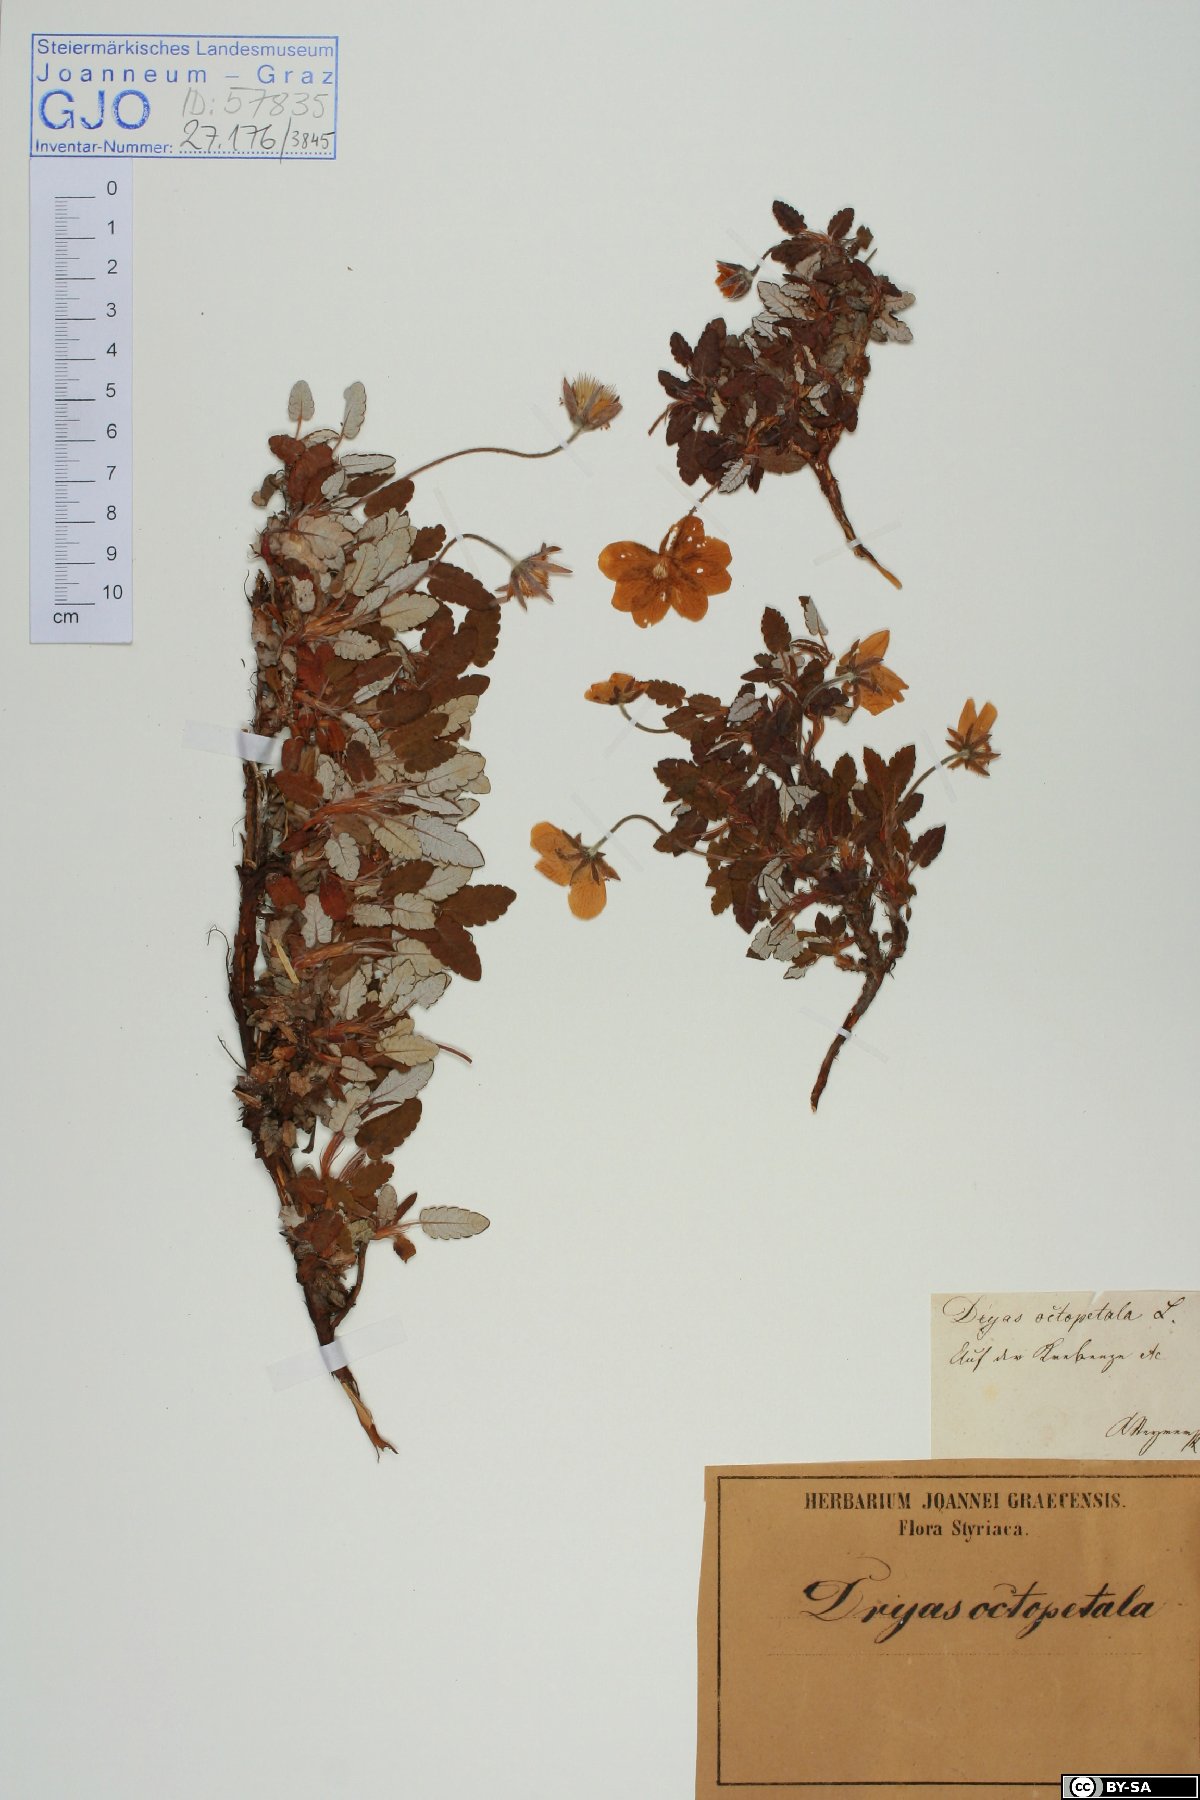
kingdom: Plantae
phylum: Tracheophyta
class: Magnoliopsida
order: Rosales
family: Rosaceae
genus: Dryas
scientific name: Dryas
